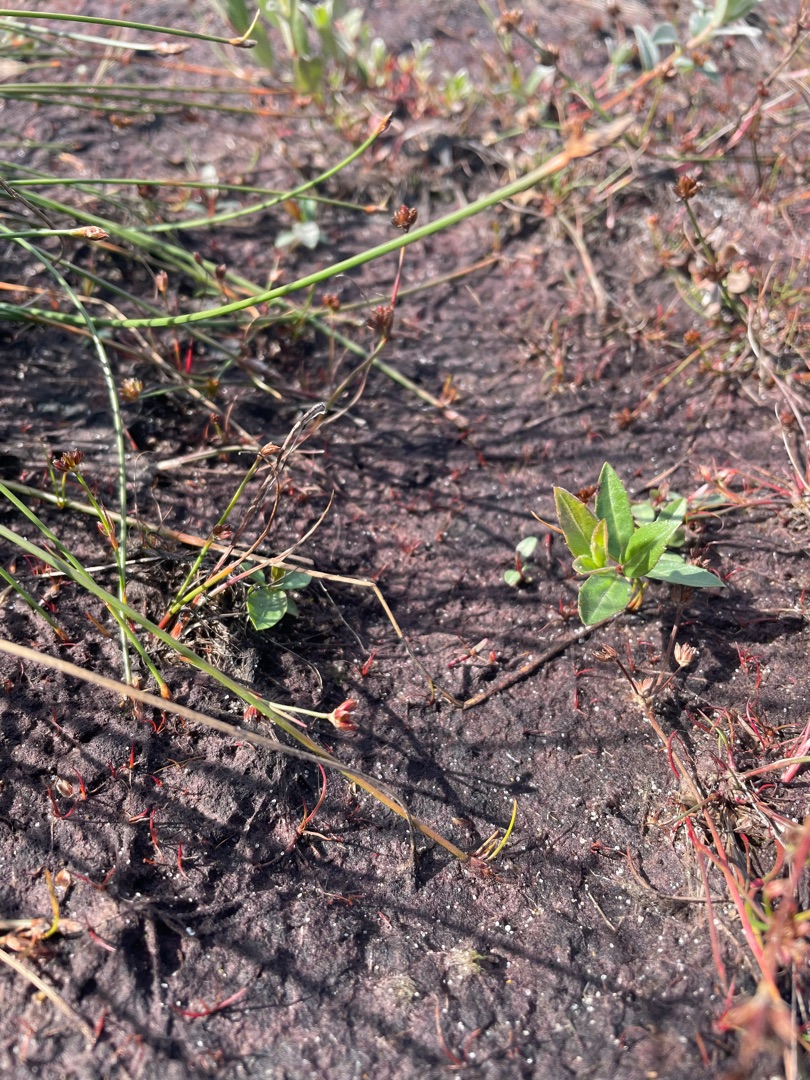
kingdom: Plantae
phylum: Tracheophyta
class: Liliopsida
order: Poales
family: Cyperaceae
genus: Eleocharis
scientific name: Eleocharis multicaulis
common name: Mangestænglet sumpstrå
